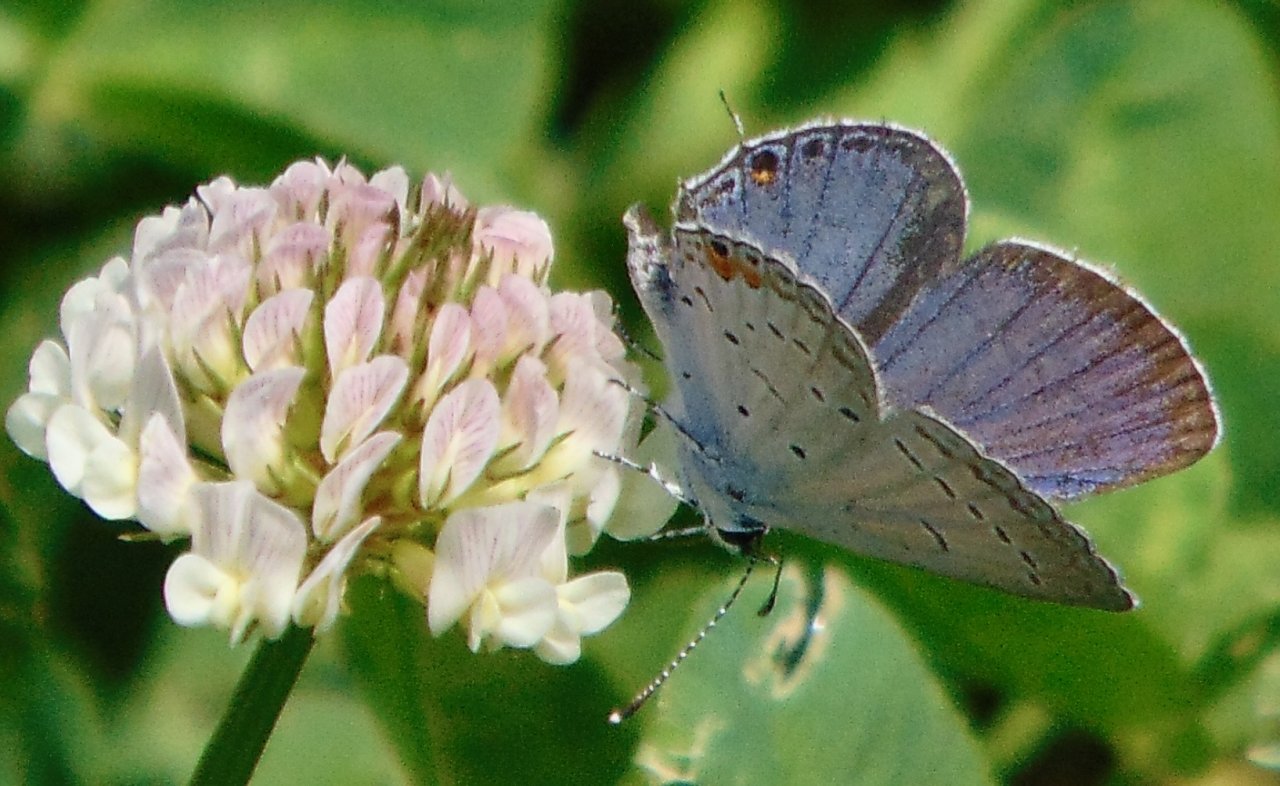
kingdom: Animalia
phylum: Arthropoda
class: Insecta
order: Lepidoptera
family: Lycaenidae
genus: Elkalyce
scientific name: Elkalyce comyntas
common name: Eastern Tailed-Blue
